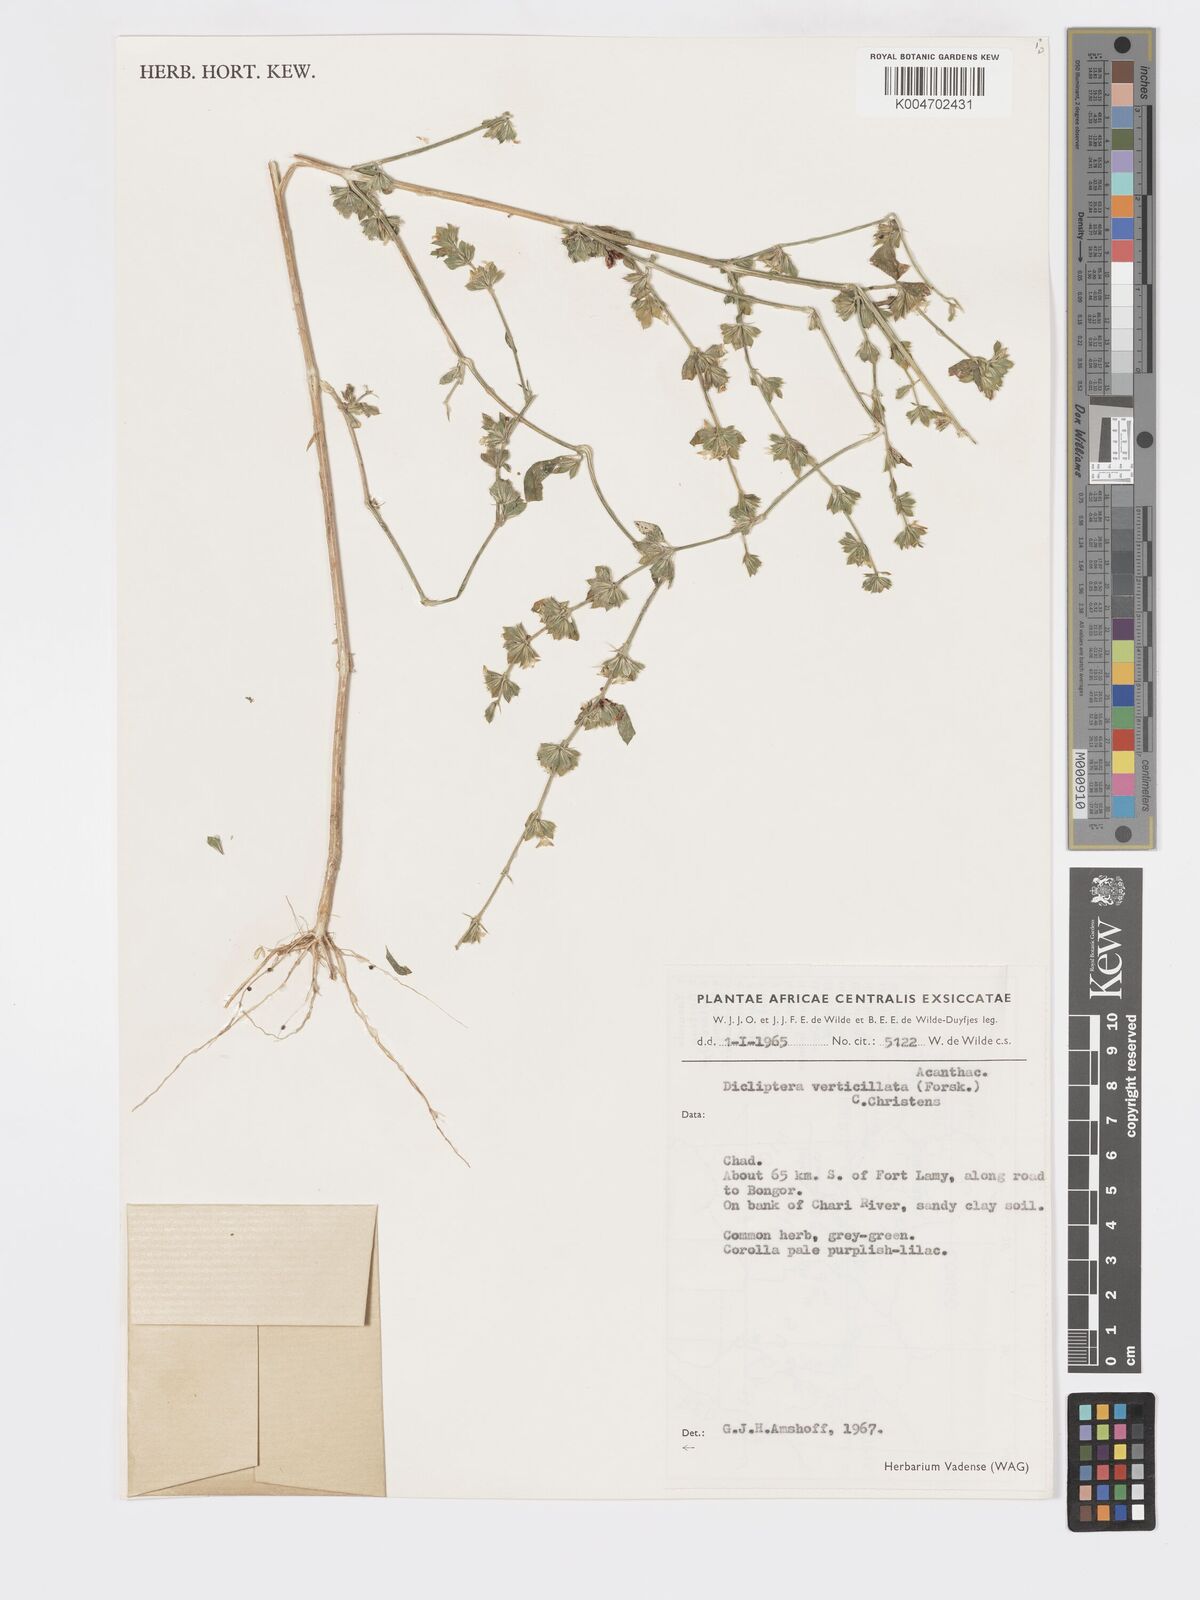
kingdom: Plantae
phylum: Tracheophyta
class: Magnoliopsida
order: Lamiales
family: Acanthaceae
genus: Dicliptera
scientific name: Dicliptera verticillata
